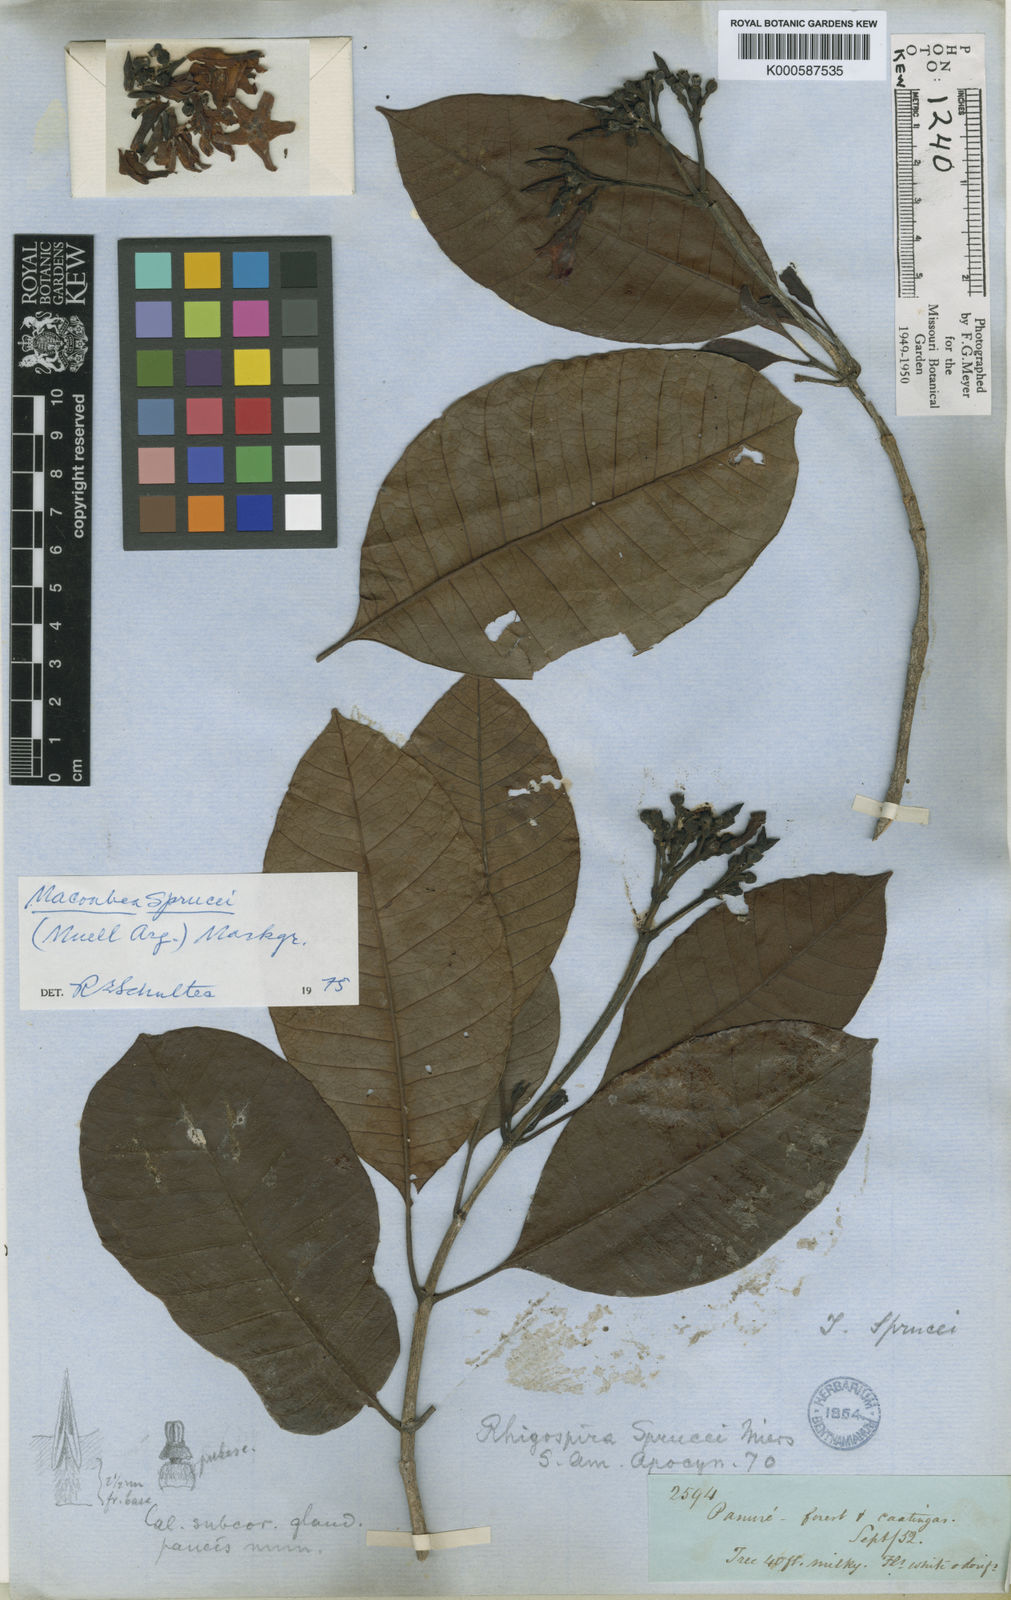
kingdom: Plantae
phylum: Tracheophyta
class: Magnoliopsida
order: Gentianales
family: Apocynaceae
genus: Macoubea
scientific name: Macoubea
